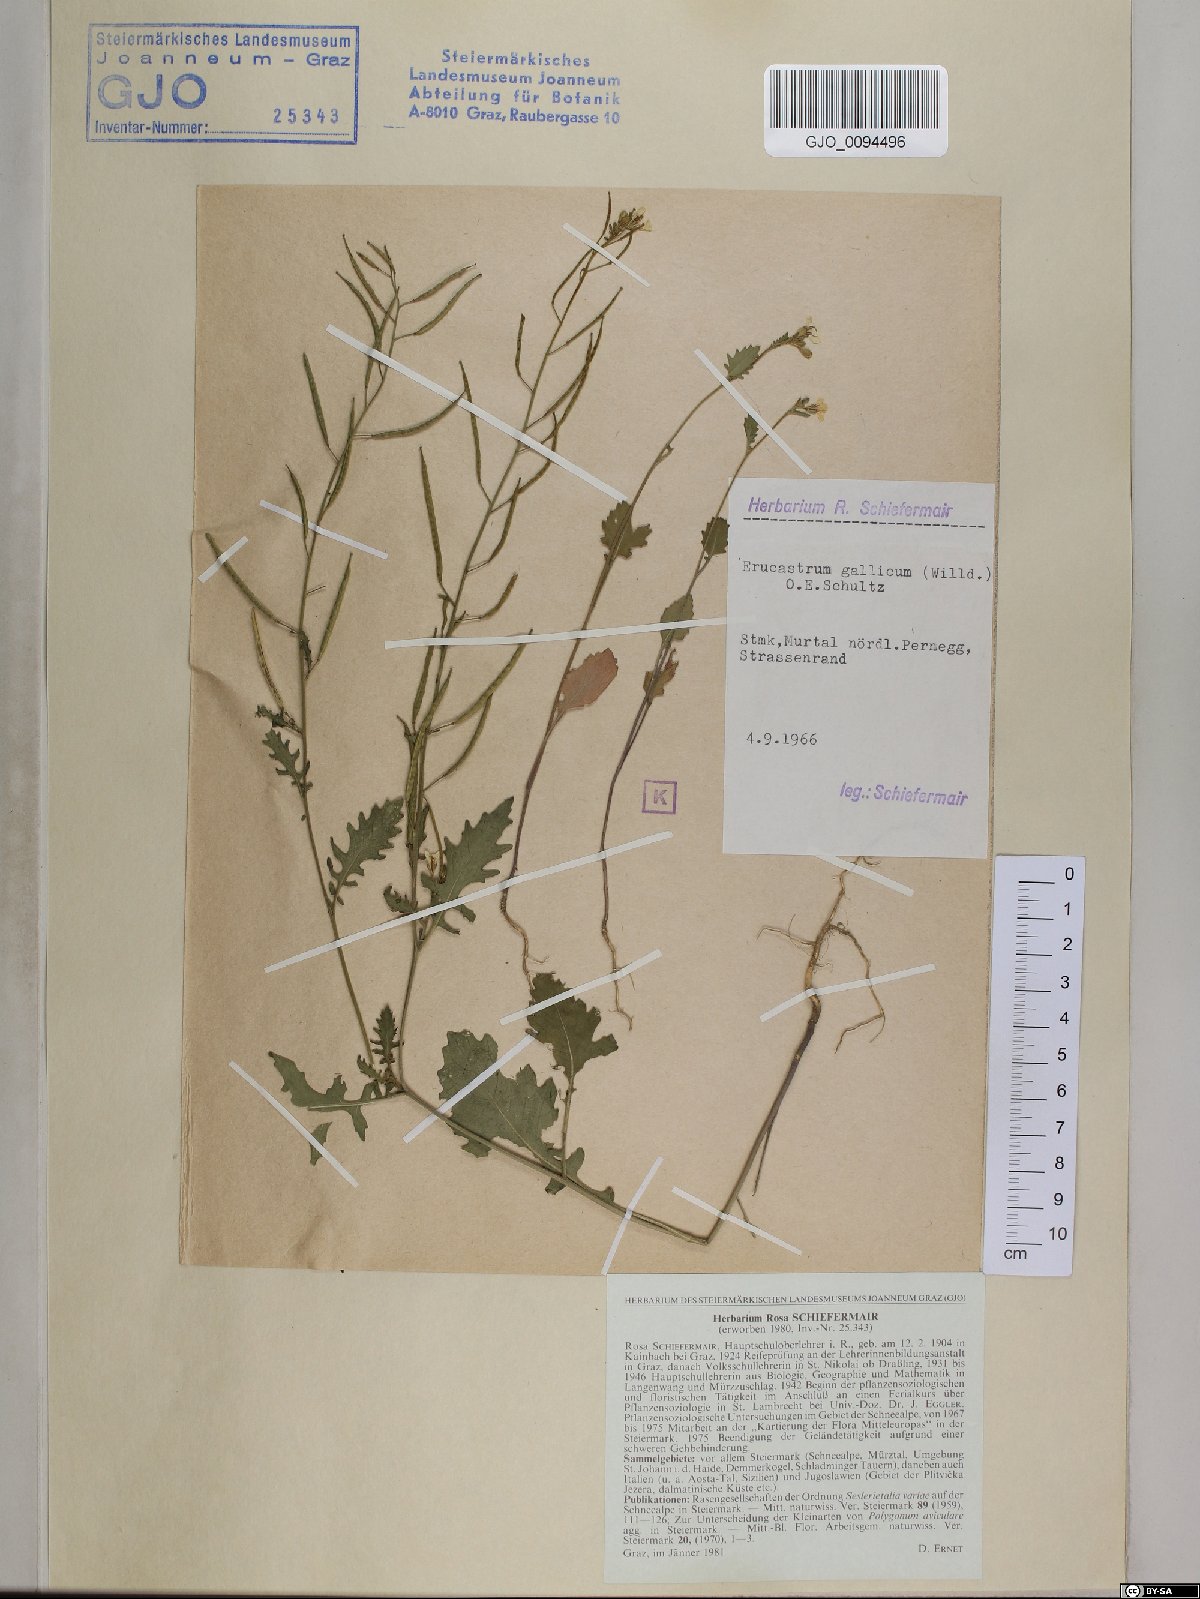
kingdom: Plantae
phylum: Tracheophyta
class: Magnoliopsida
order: Brassicales
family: Brassicaceae
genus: Erucastrum
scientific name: Erucastrum gallicum
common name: Hairy rocket
